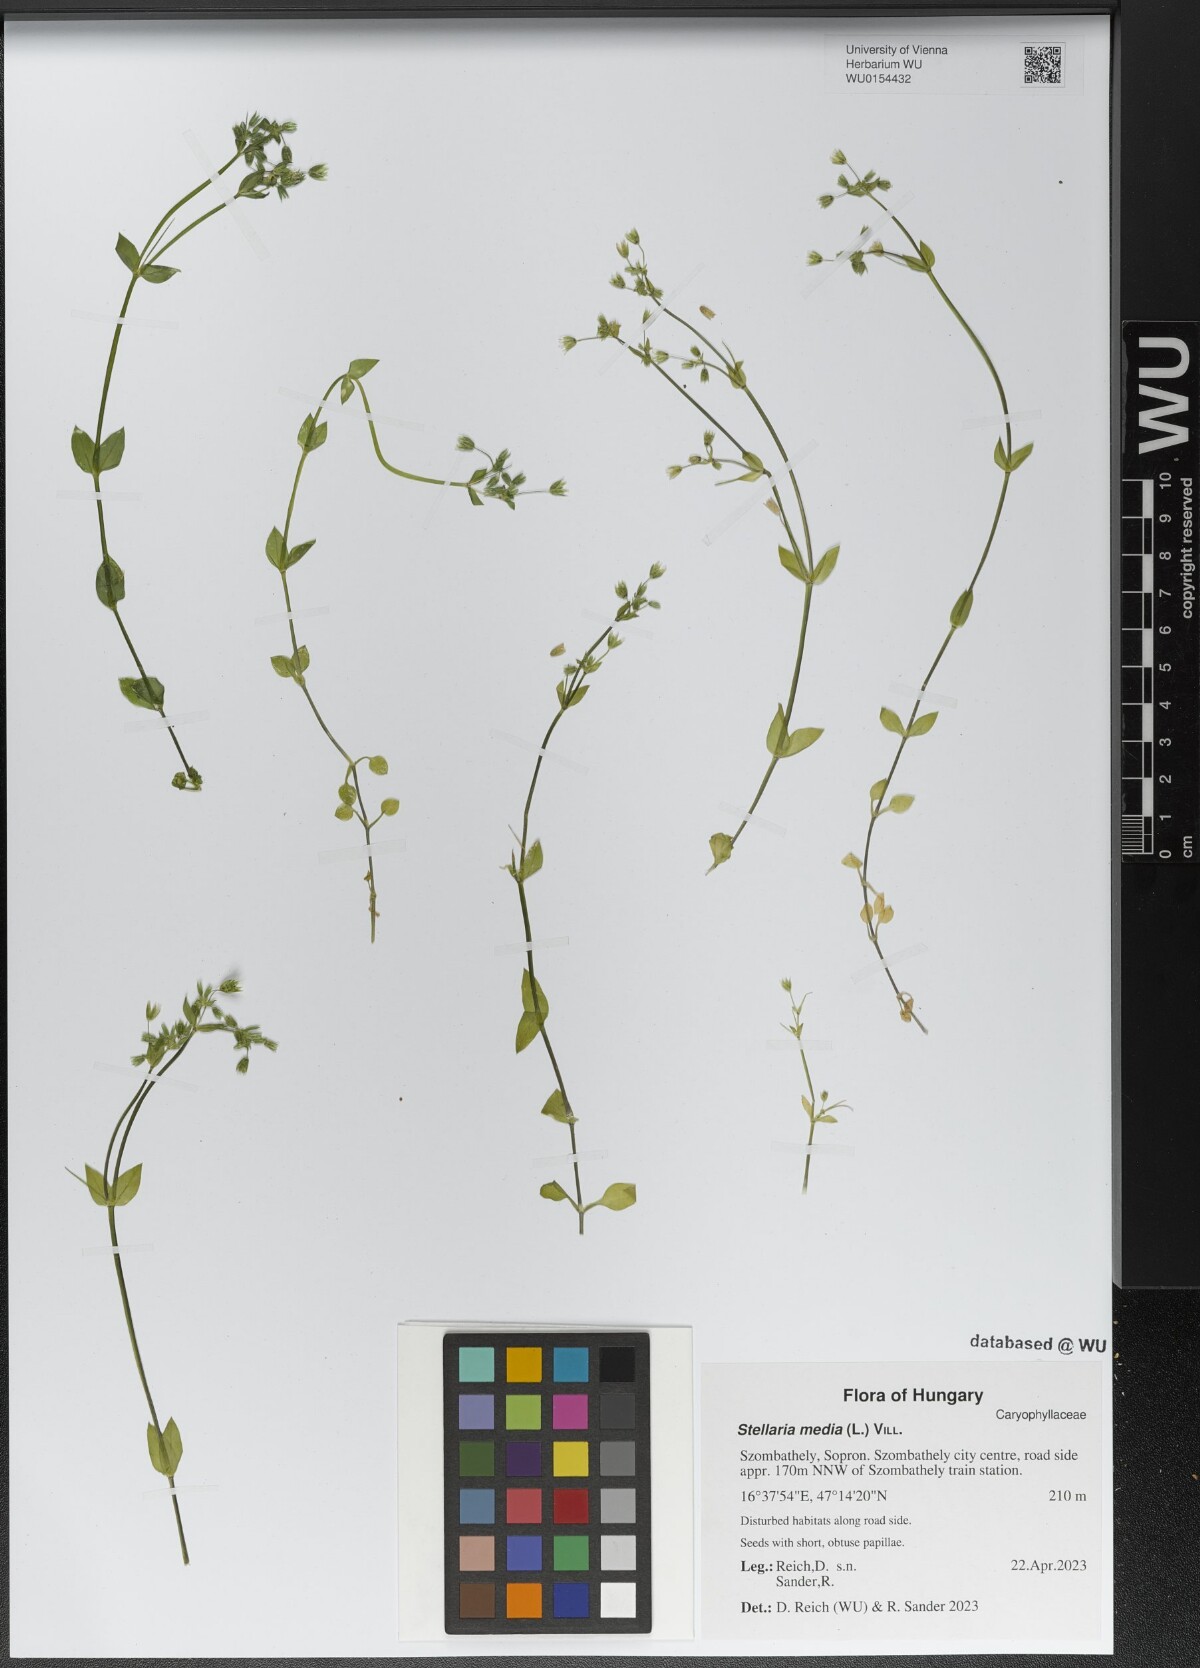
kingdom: Plantae
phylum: Tracheophyta
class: Magnoliopsida
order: Caryophyllales
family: Caryophyllaceae
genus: Stellaria
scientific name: Stellaria media
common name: Common chickweed
